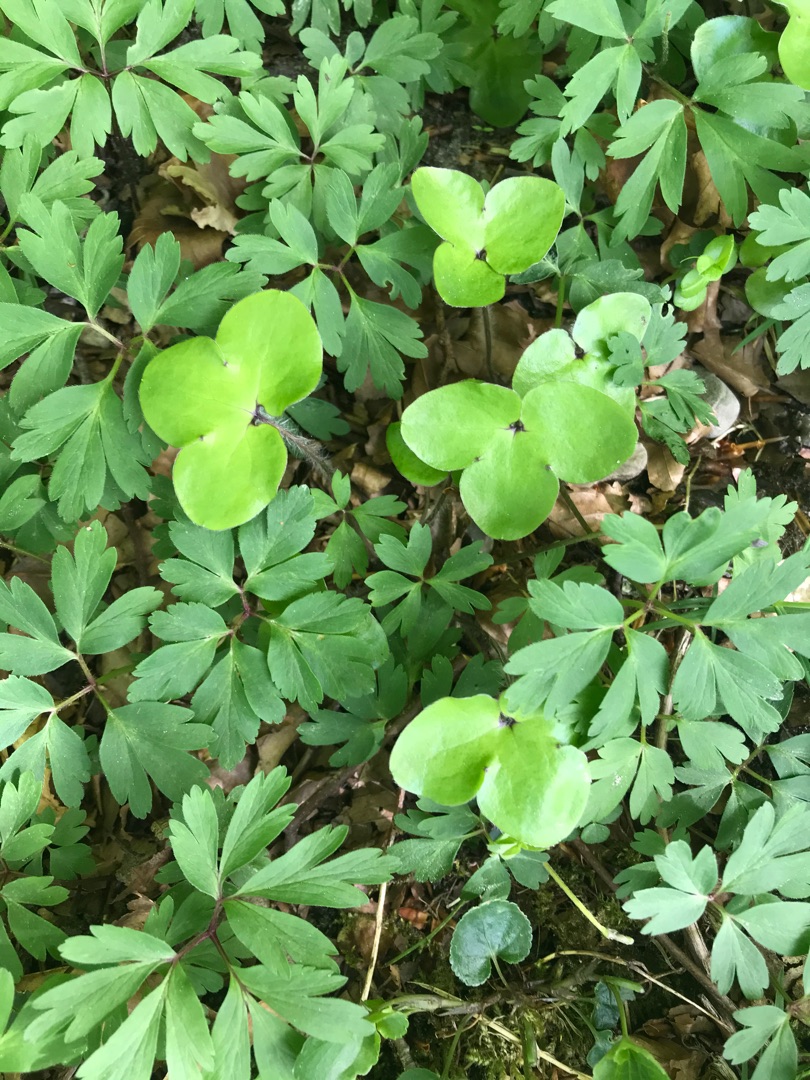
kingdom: Plantae
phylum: Tracheophyta
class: Magnoliopsida
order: Ranunculales
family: Ranunculaceae
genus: Hepatica
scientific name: Hepatica nobilis
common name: Blå anemone
